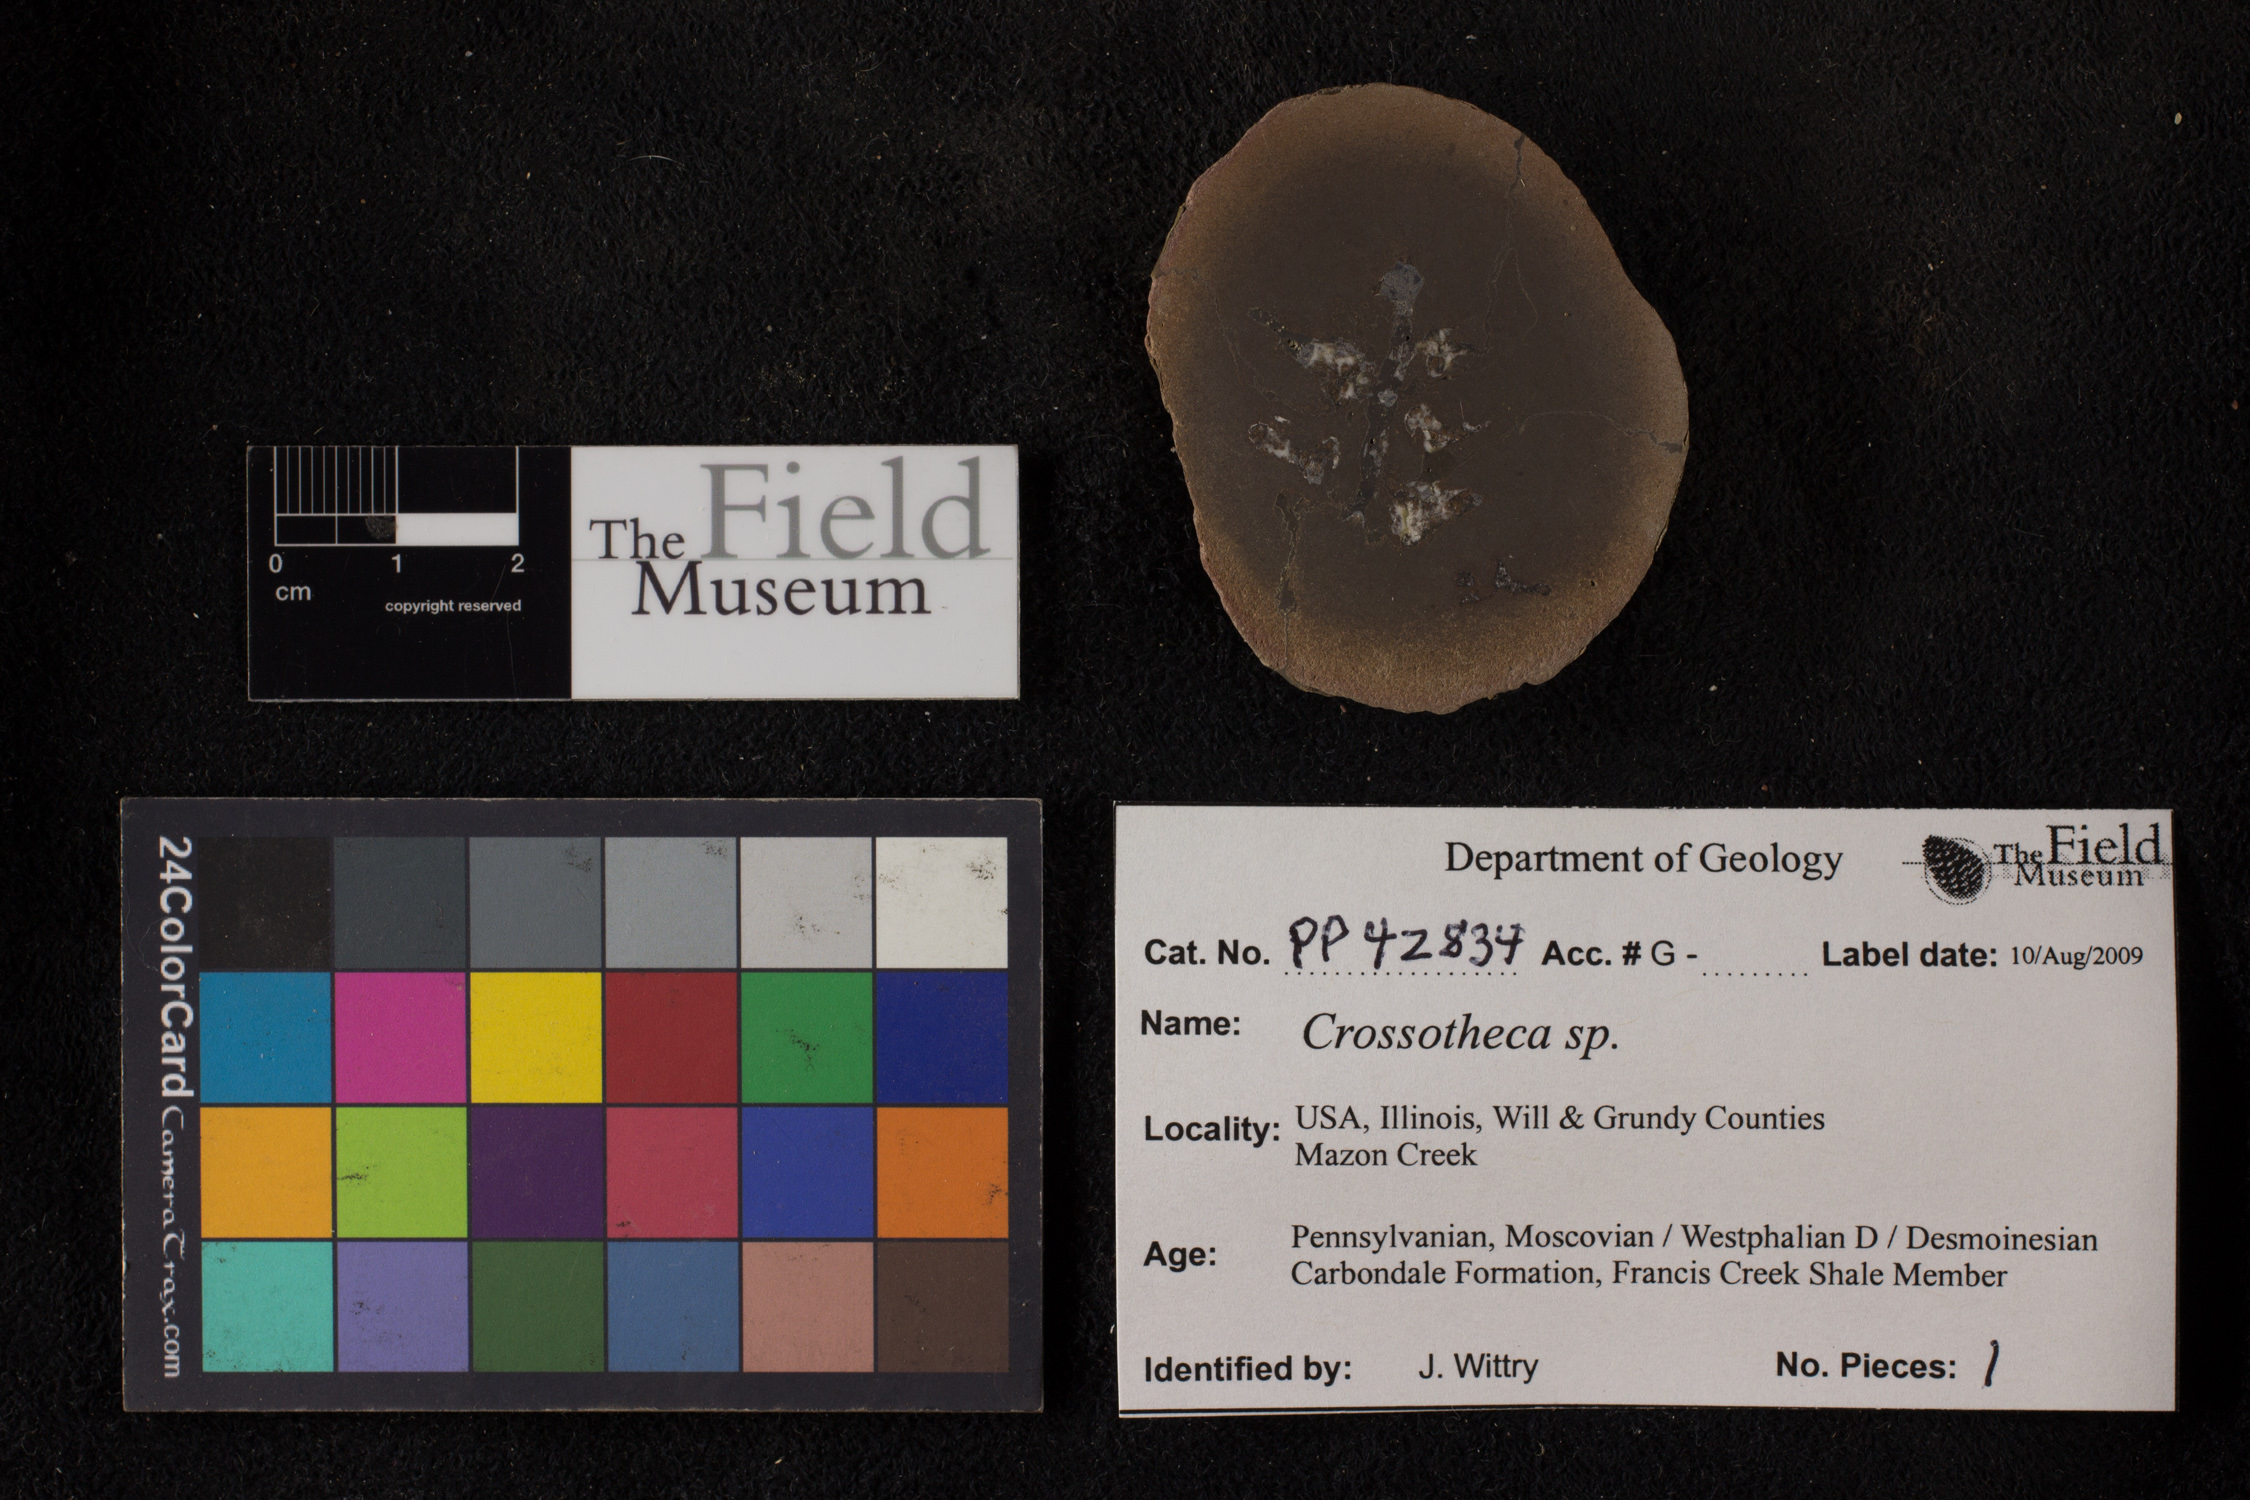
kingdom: Plantae
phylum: Tracheophyta
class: Polypodiopsida
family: Stauropteridaceae
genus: Crossotheca
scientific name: Crossotheca
